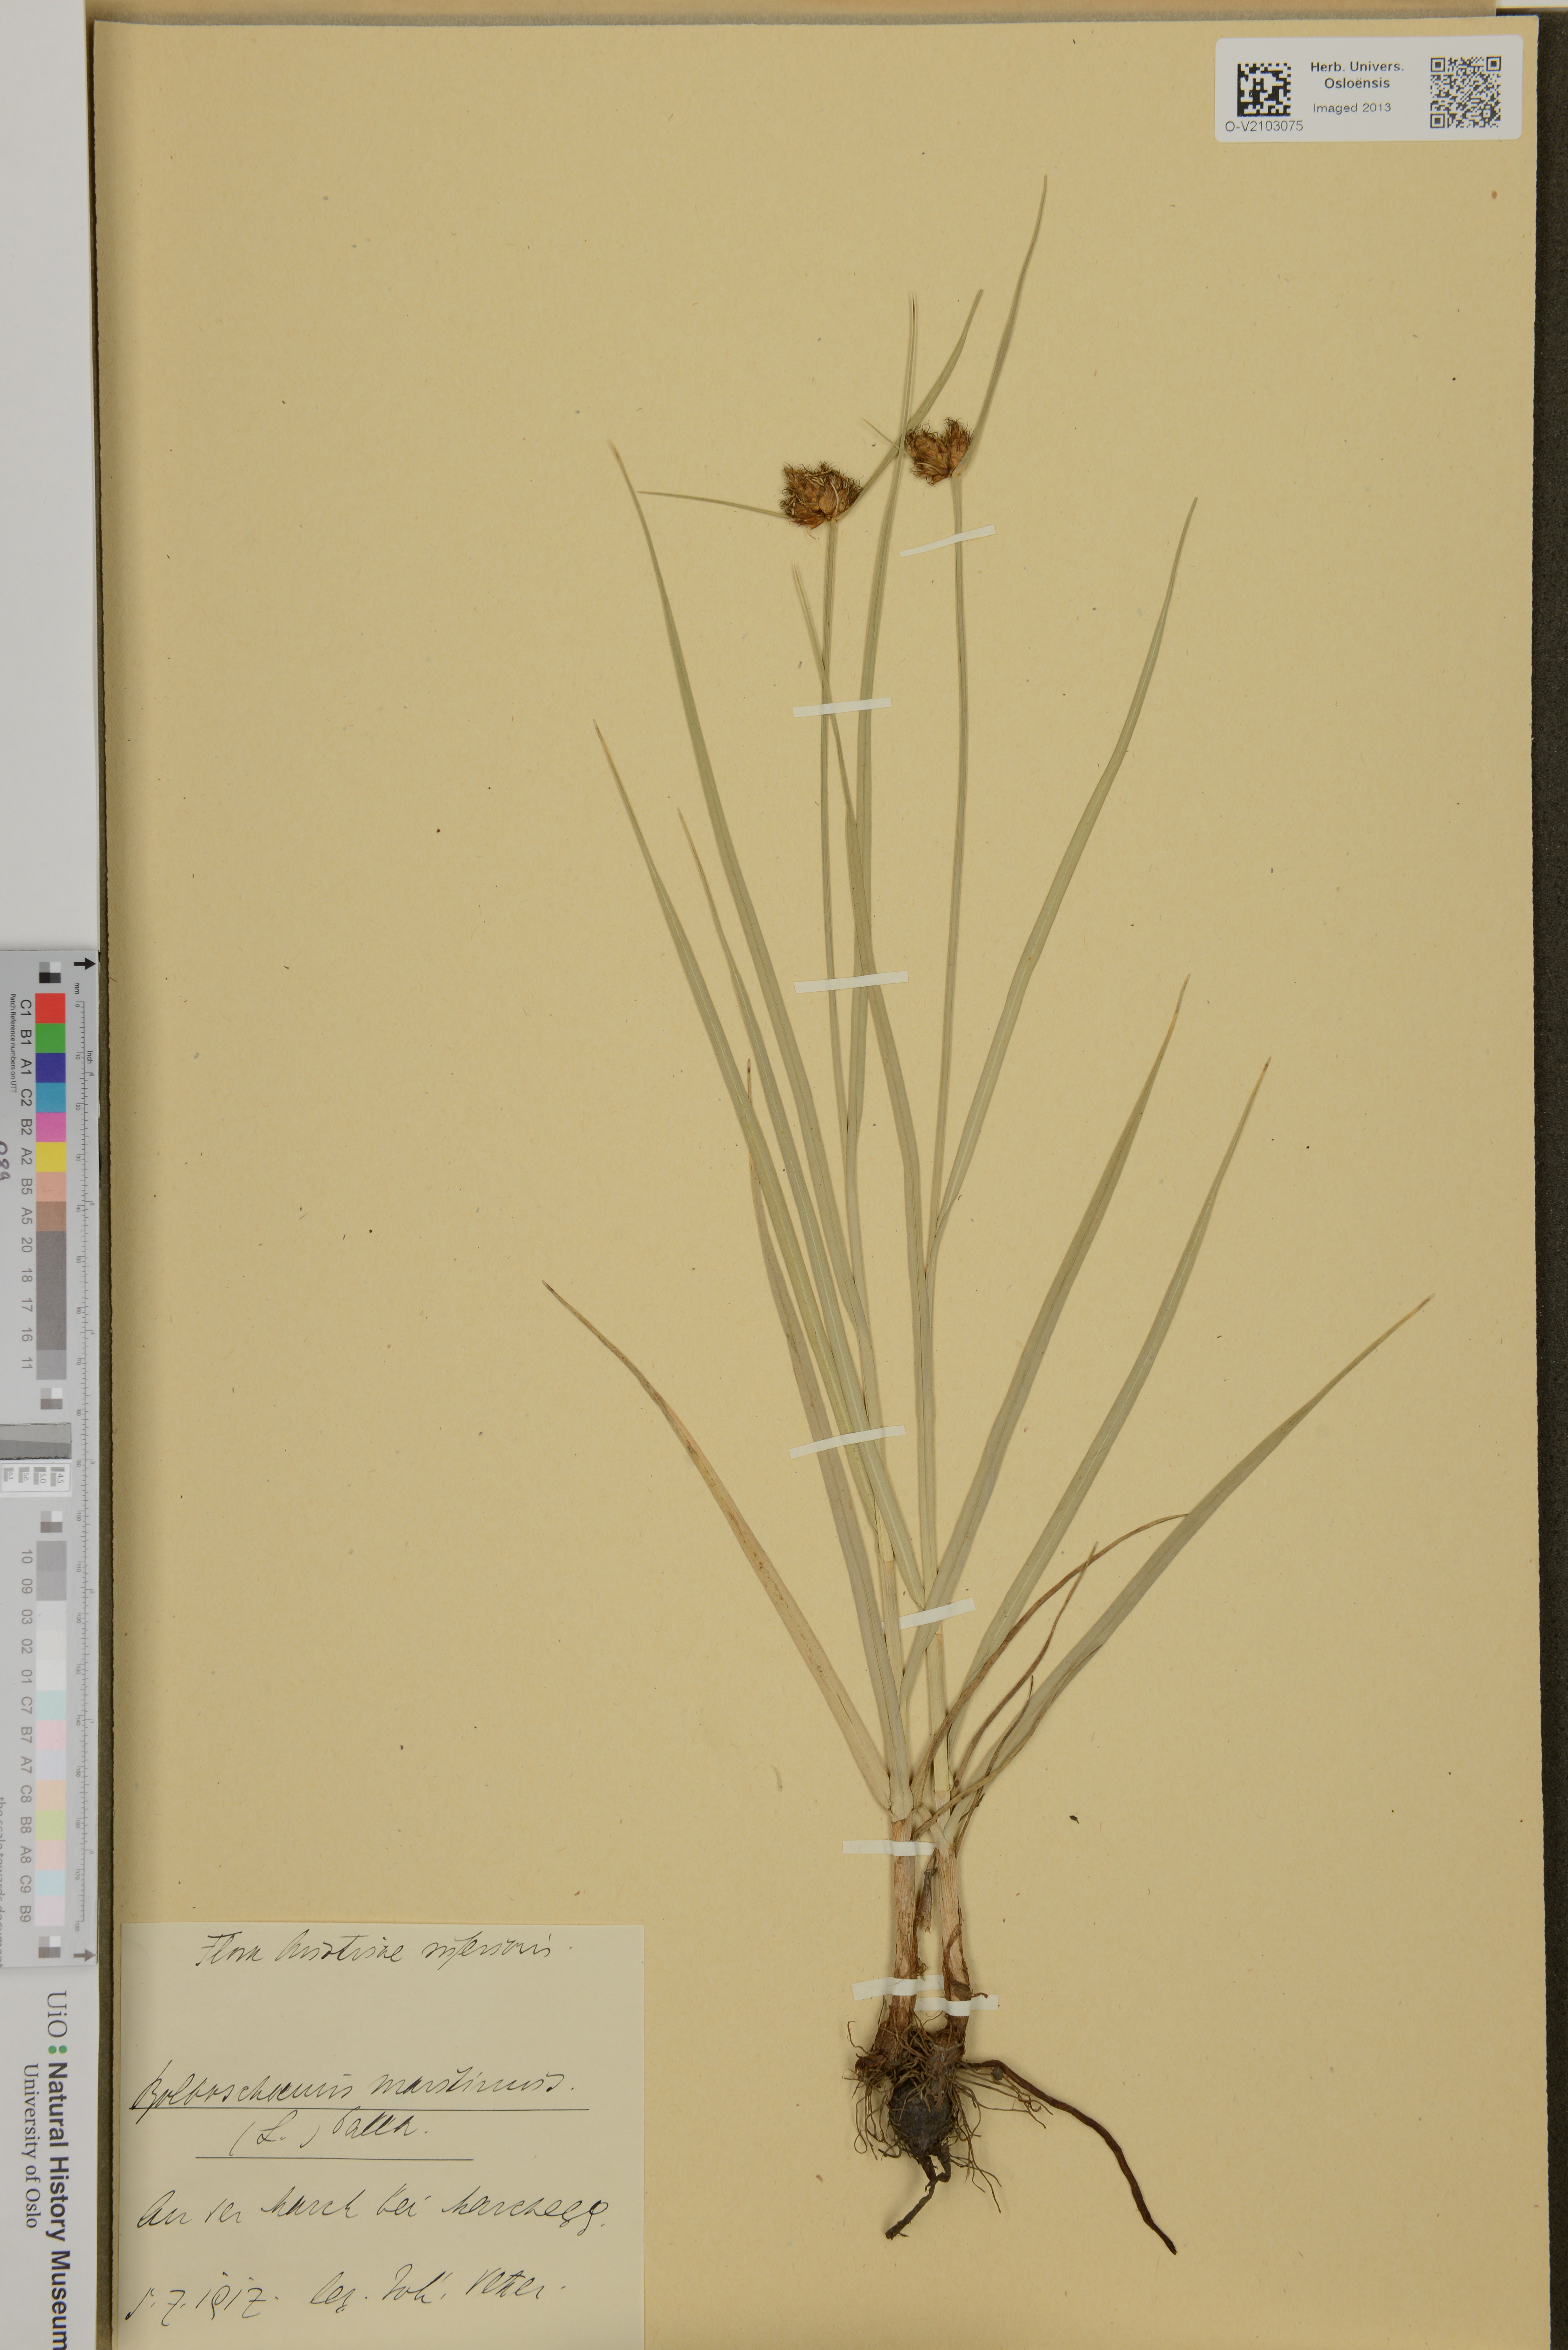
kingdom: Plantae
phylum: Tracheophyta
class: Liliopsida
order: Poales
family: Cyperaceae
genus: Bolboschoenus
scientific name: Bolboschoenus maritimus
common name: Sea club-rush
